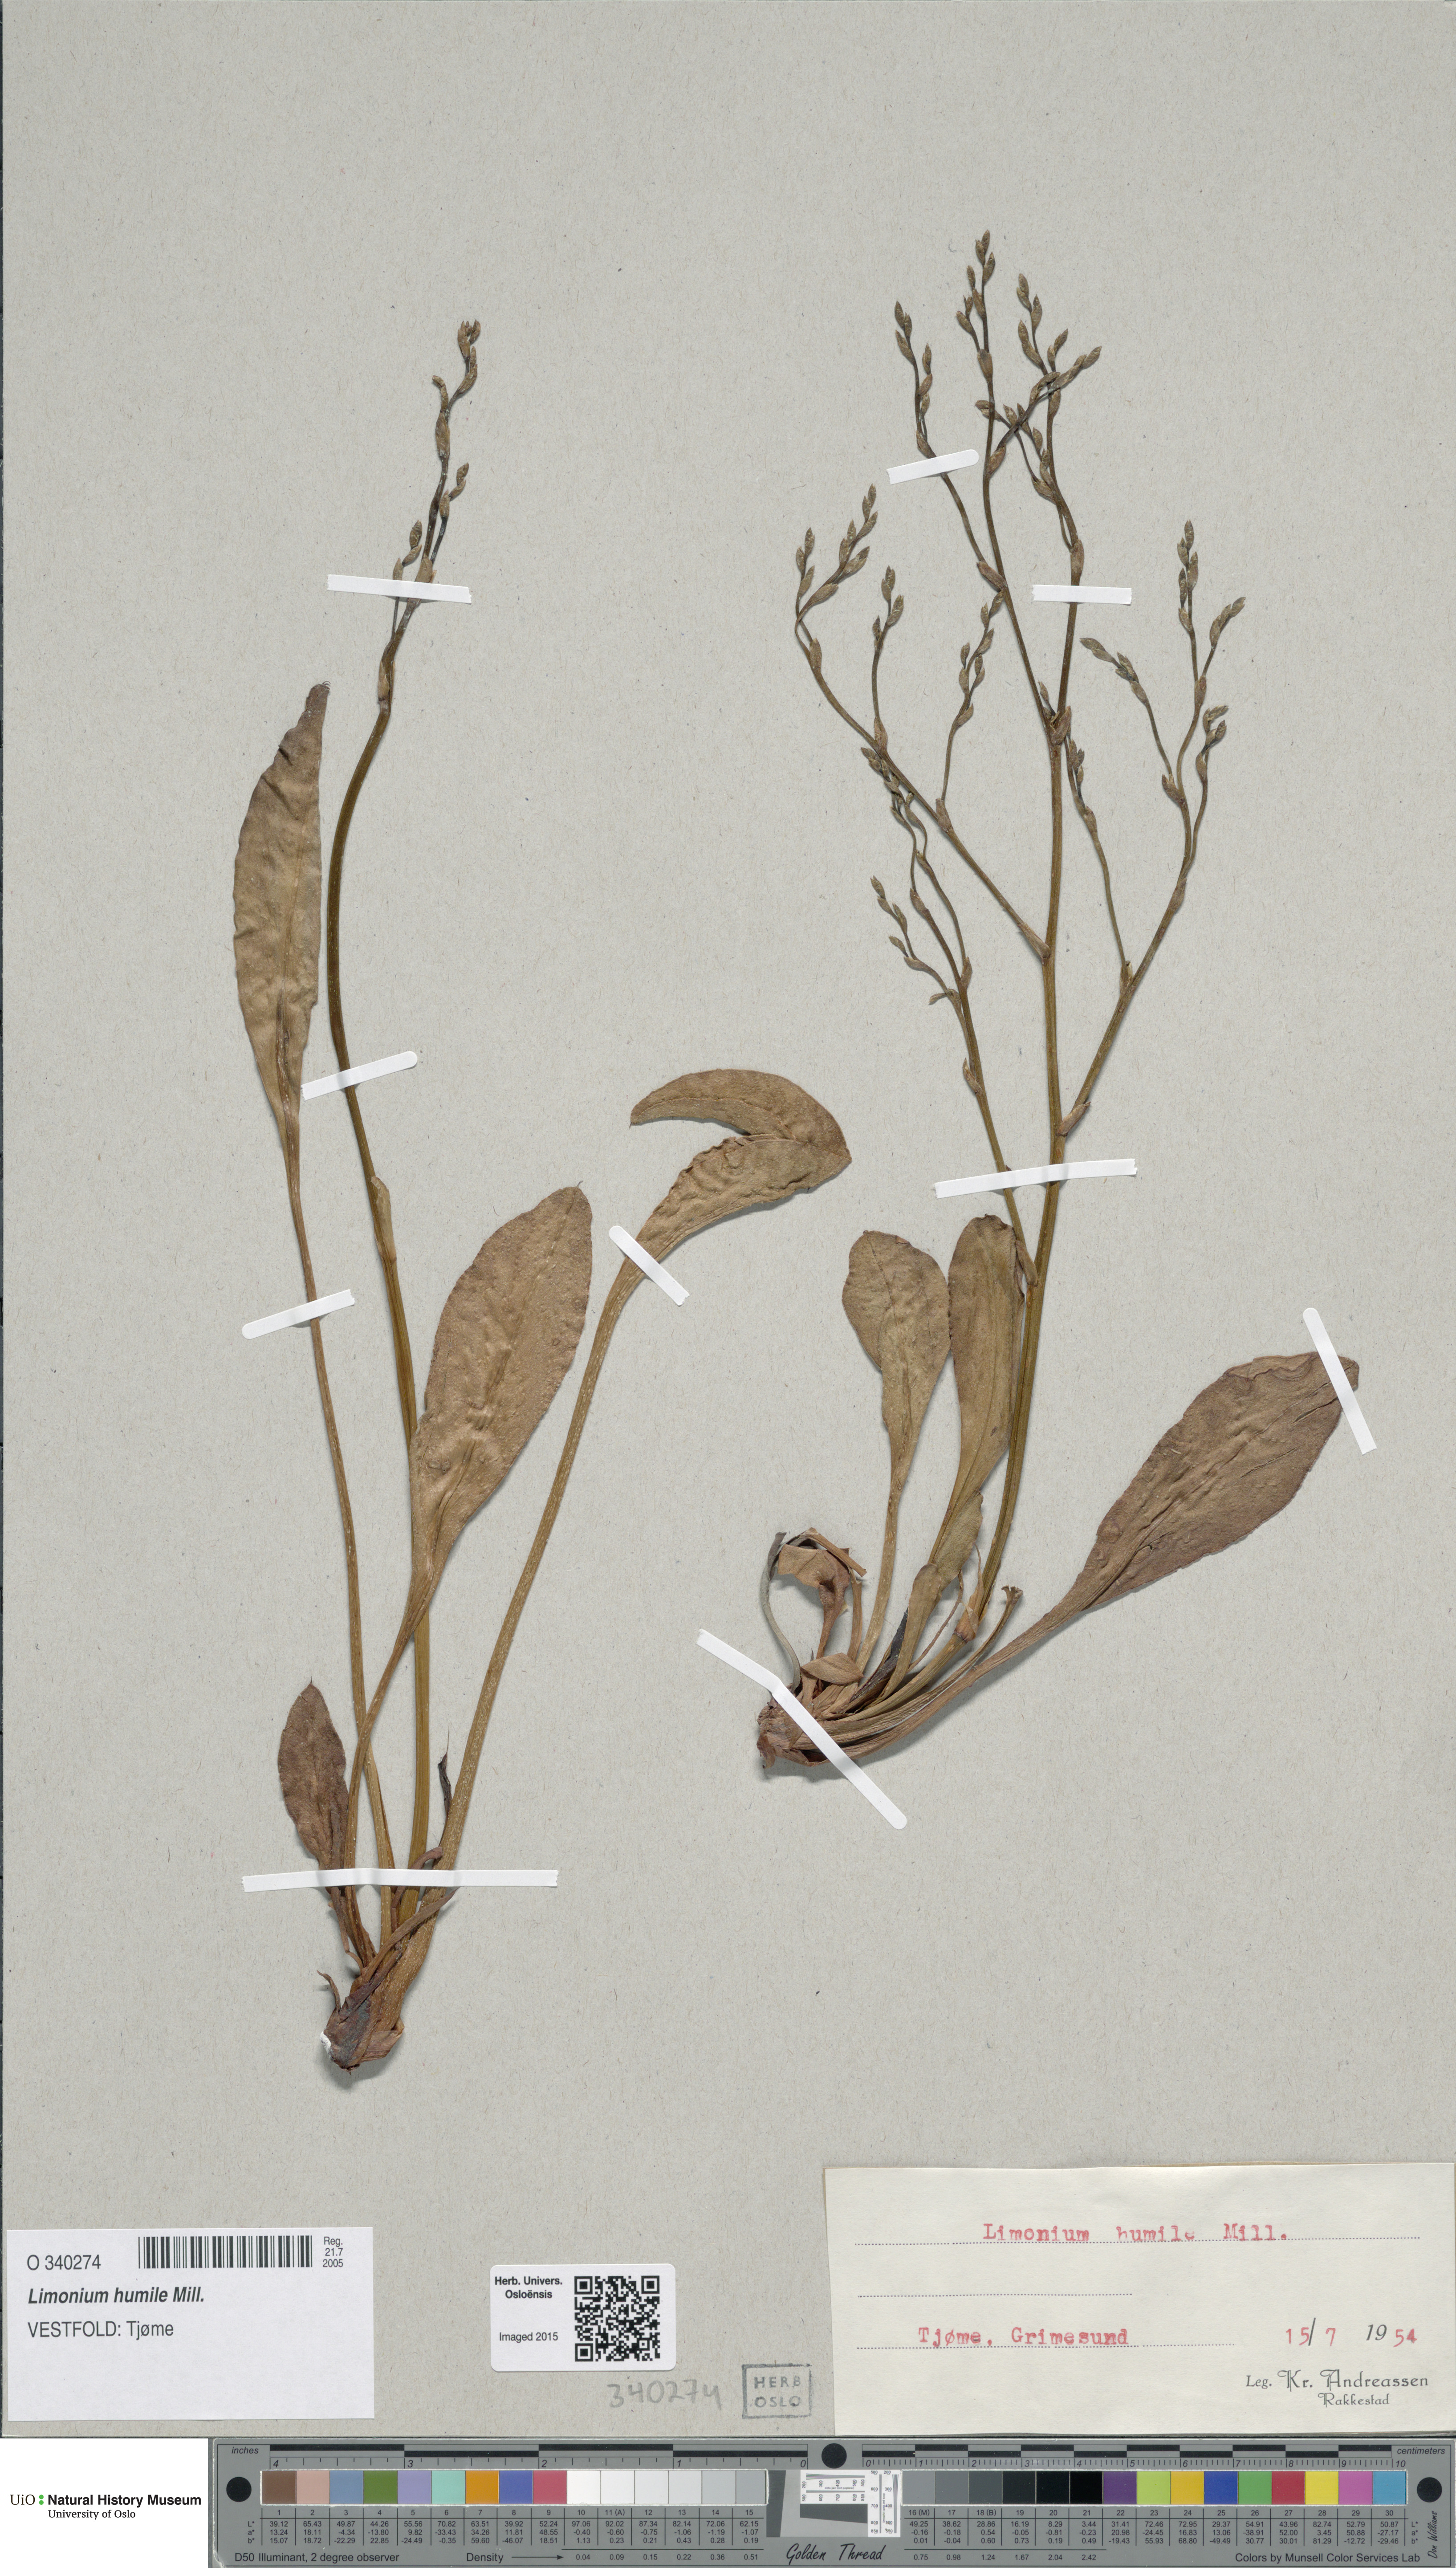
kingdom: Plantae
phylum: Tracheophyta
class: Magnoliopsida
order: Caryophyllales
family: Plumbaginaceae
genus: Limonium
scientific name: Limonium humile
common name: Lax-flowered sea-lavender
